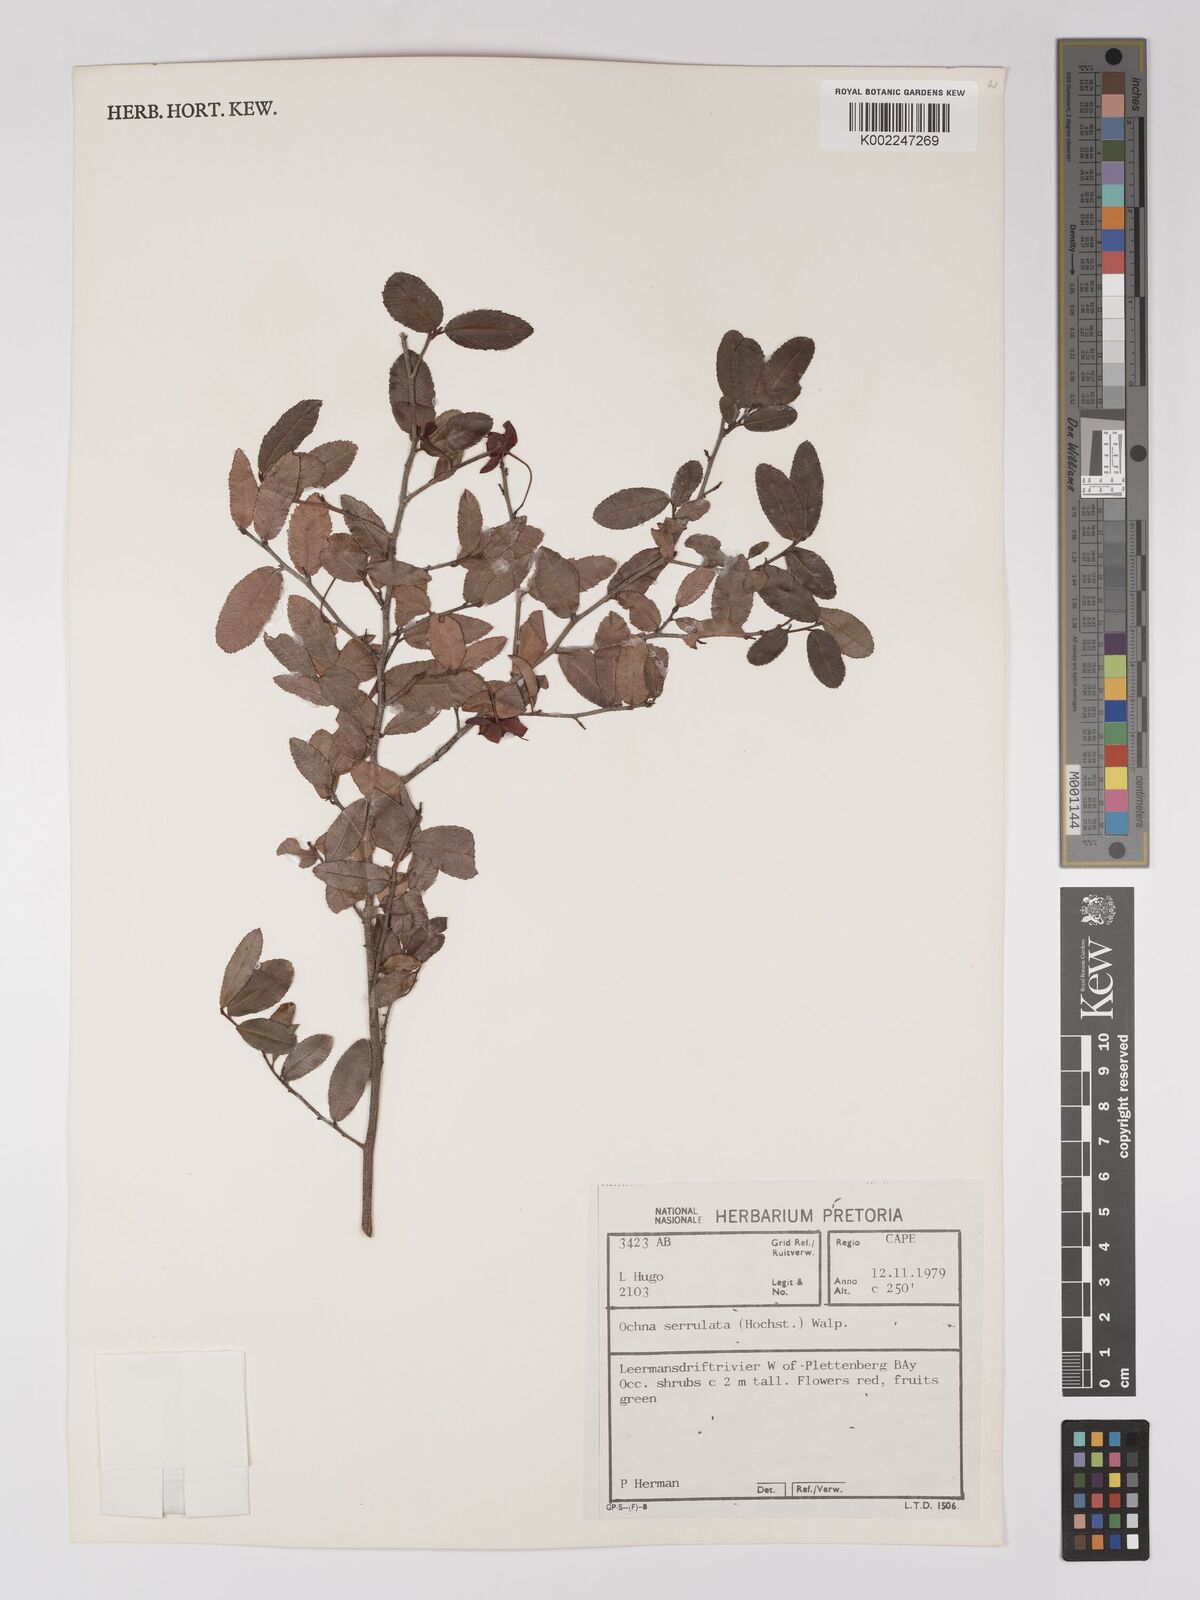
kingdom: Plantae
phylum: Tracheophyta
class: Magnoliopsida
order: Malpighiales
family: Ochnaceae
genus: Ochna
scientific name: Ochna gamostigmata
